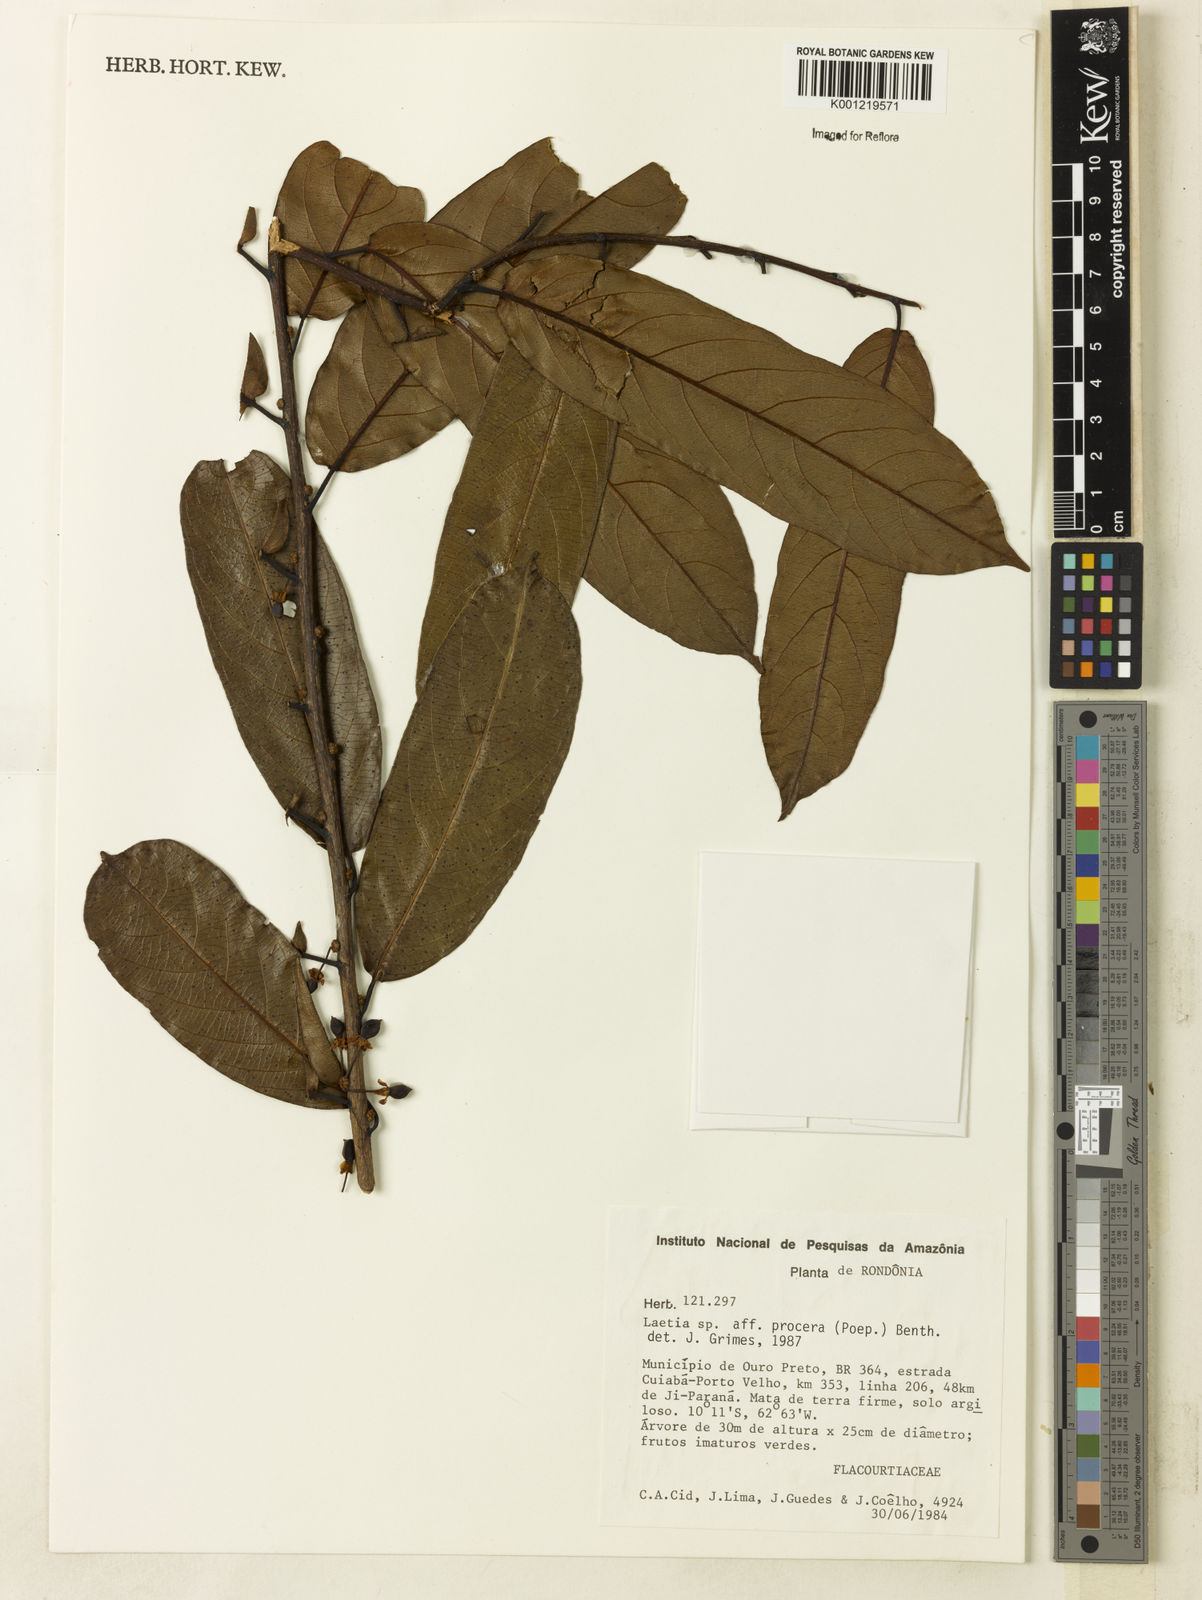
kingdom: Plantae
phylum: Tracheophyta
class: Magnoliopsida
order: Malpighiales
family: Salicaceae
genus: Casearia
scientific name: Casearia bicolor
